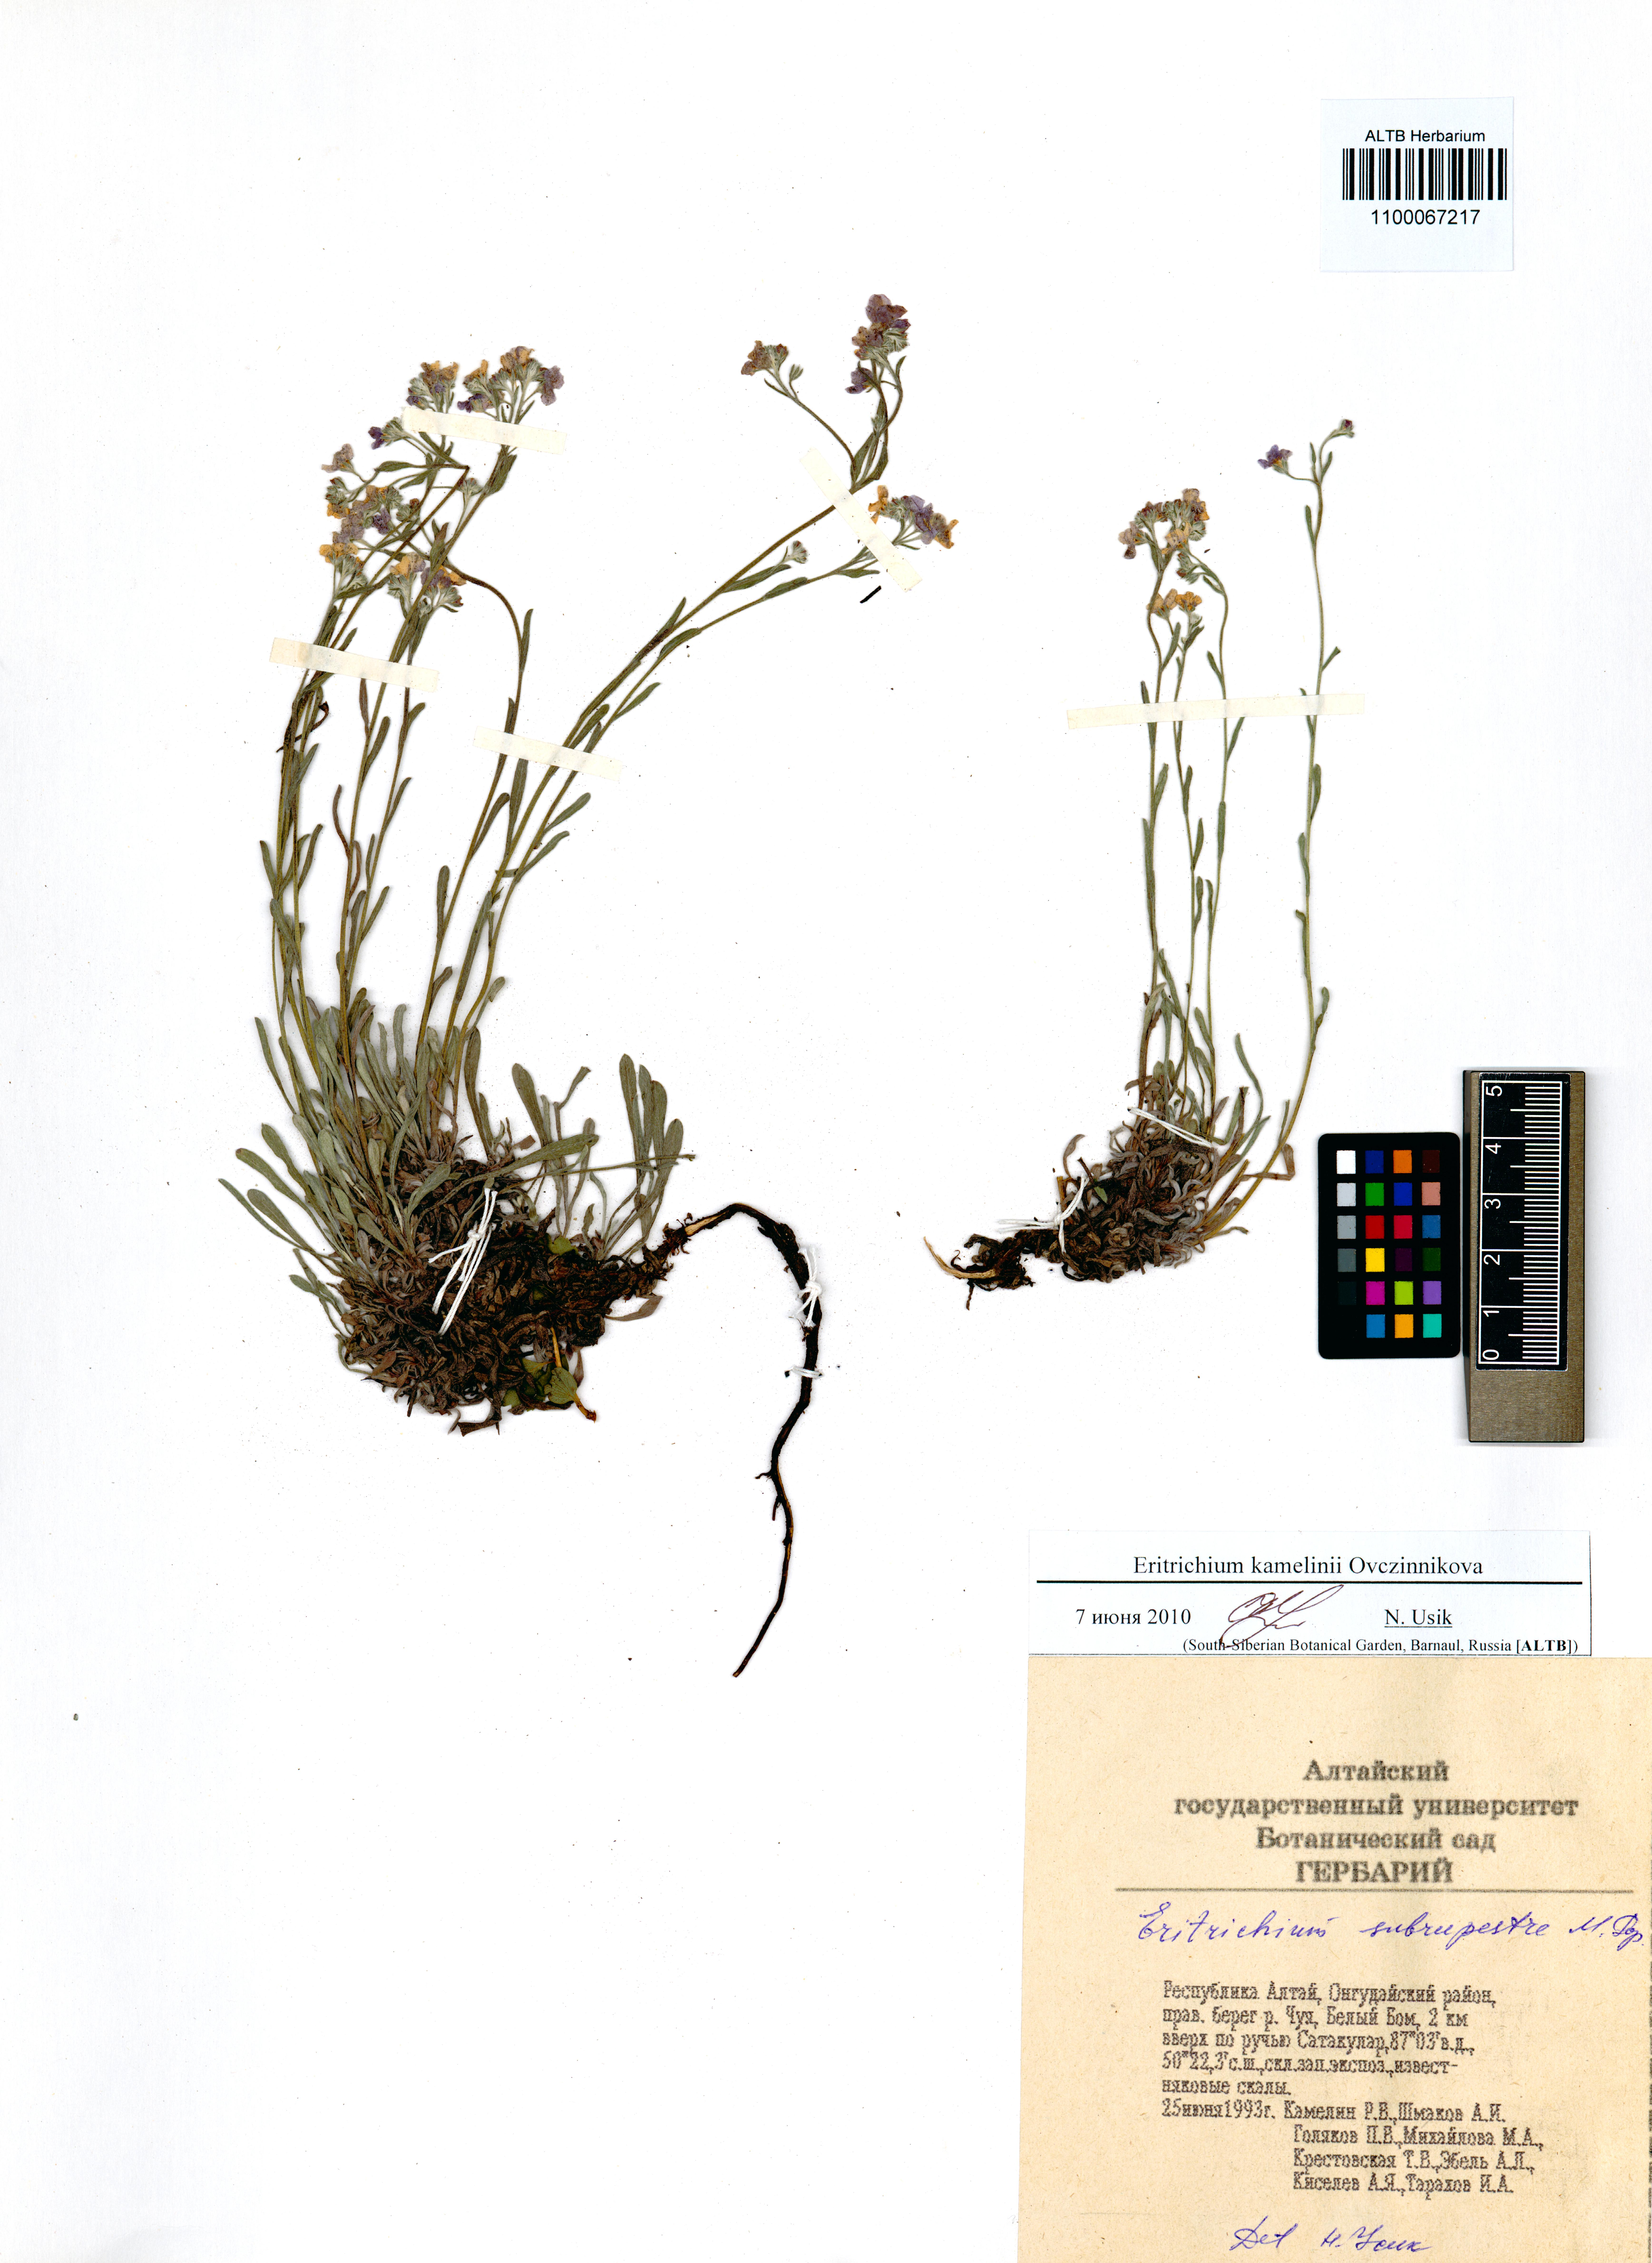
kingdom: Plantae
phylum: Tracheophyta
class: Magnoliopsida
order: Boraginales
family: Boraginaceae
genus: Eritrichium
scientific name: Eritrichium kamelinii
